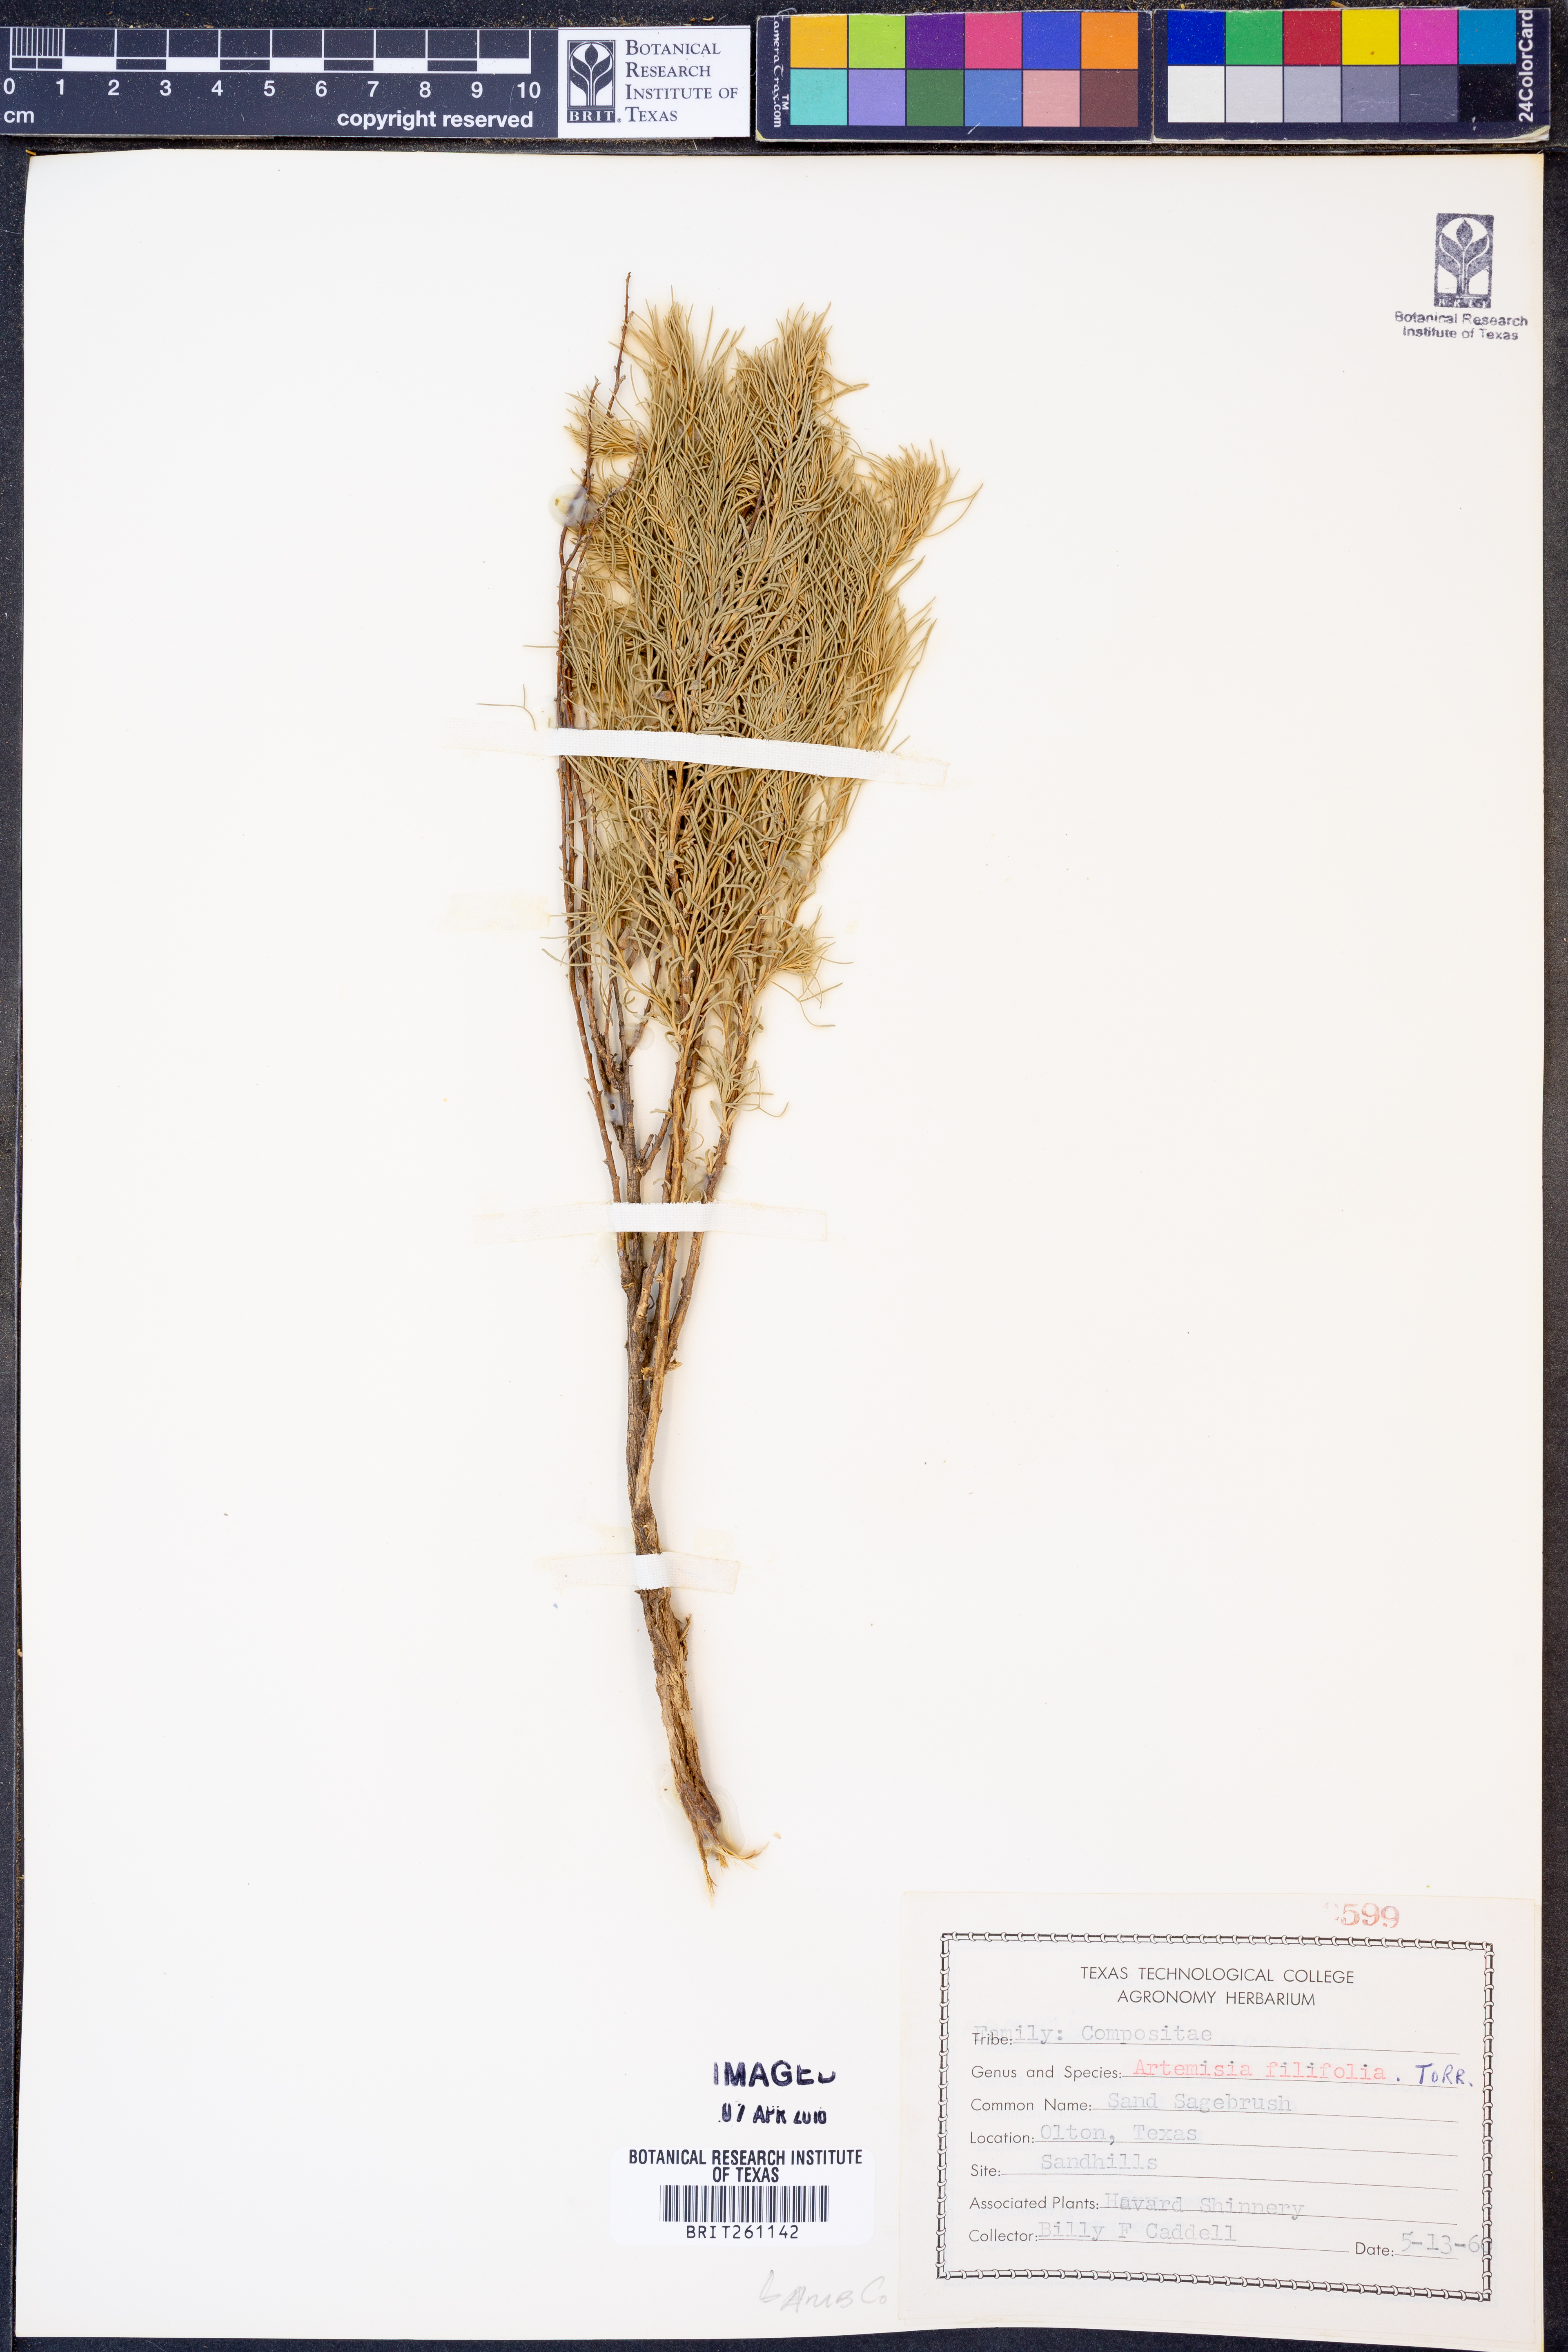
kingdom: Plantae
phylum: Tracheophyta
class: Magnoliopsida
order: Asterales
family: Asteraceae
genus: Artemisia
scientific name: Artemisia filifolia
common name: Sand-sage
